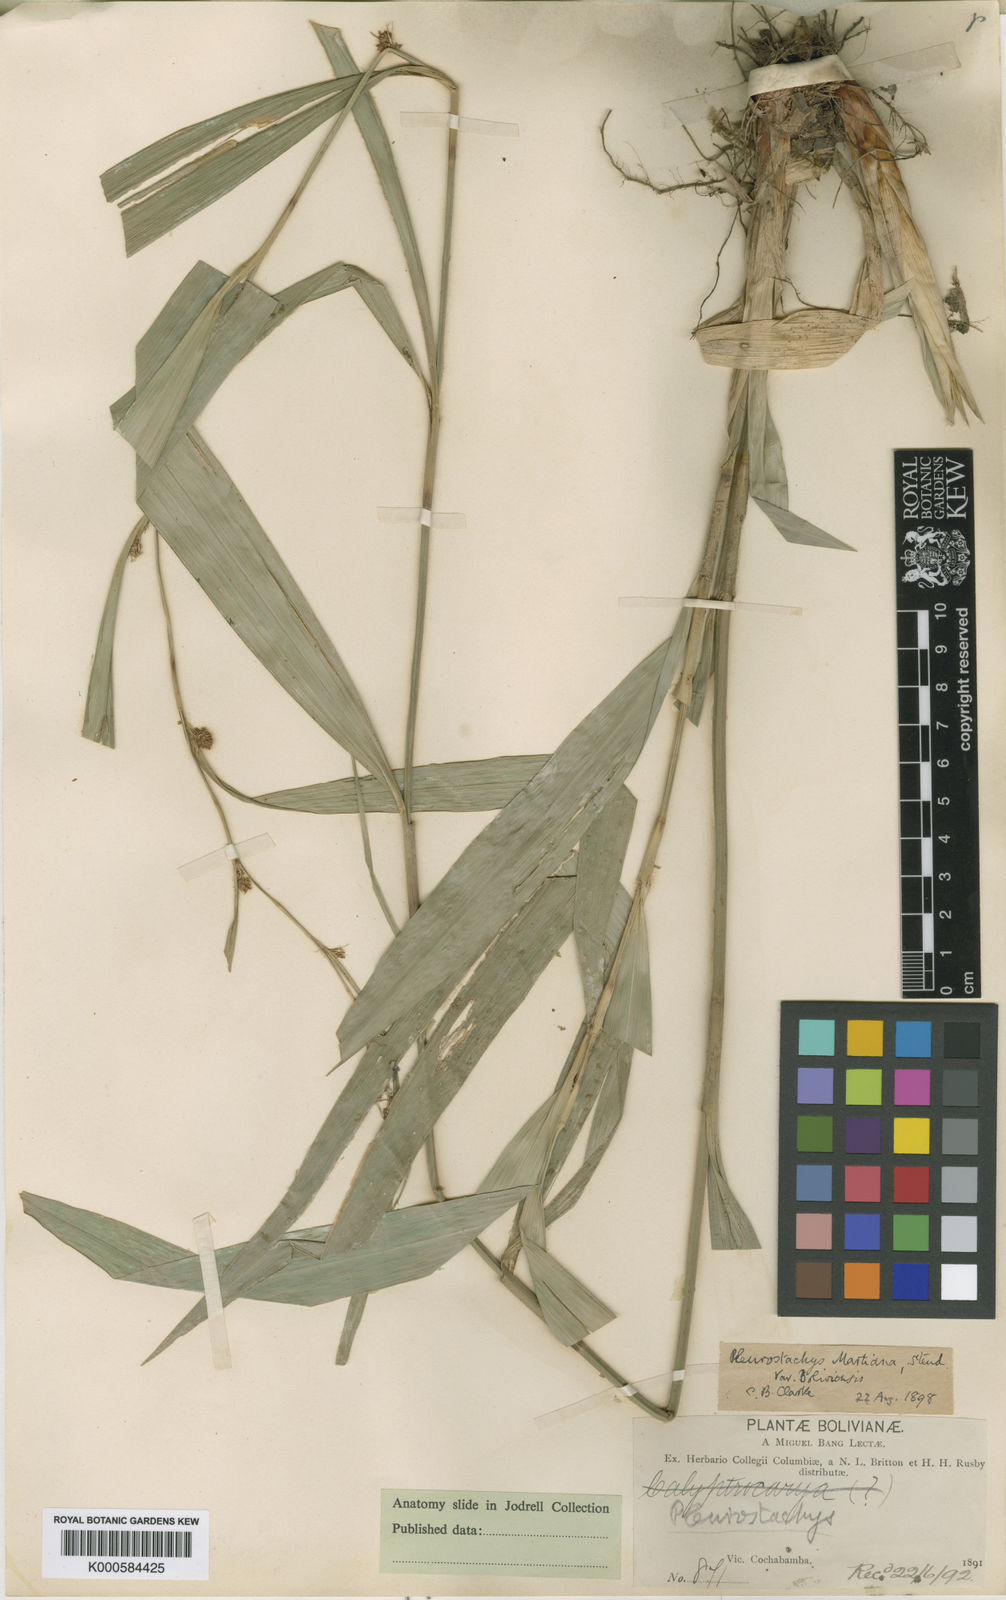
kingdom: Plantae
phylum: Tracheophyta
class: Liliopsida
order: Poales
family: Cyperaceae
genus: Rhynchospora
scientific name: Rhynchospora tenuiflora
